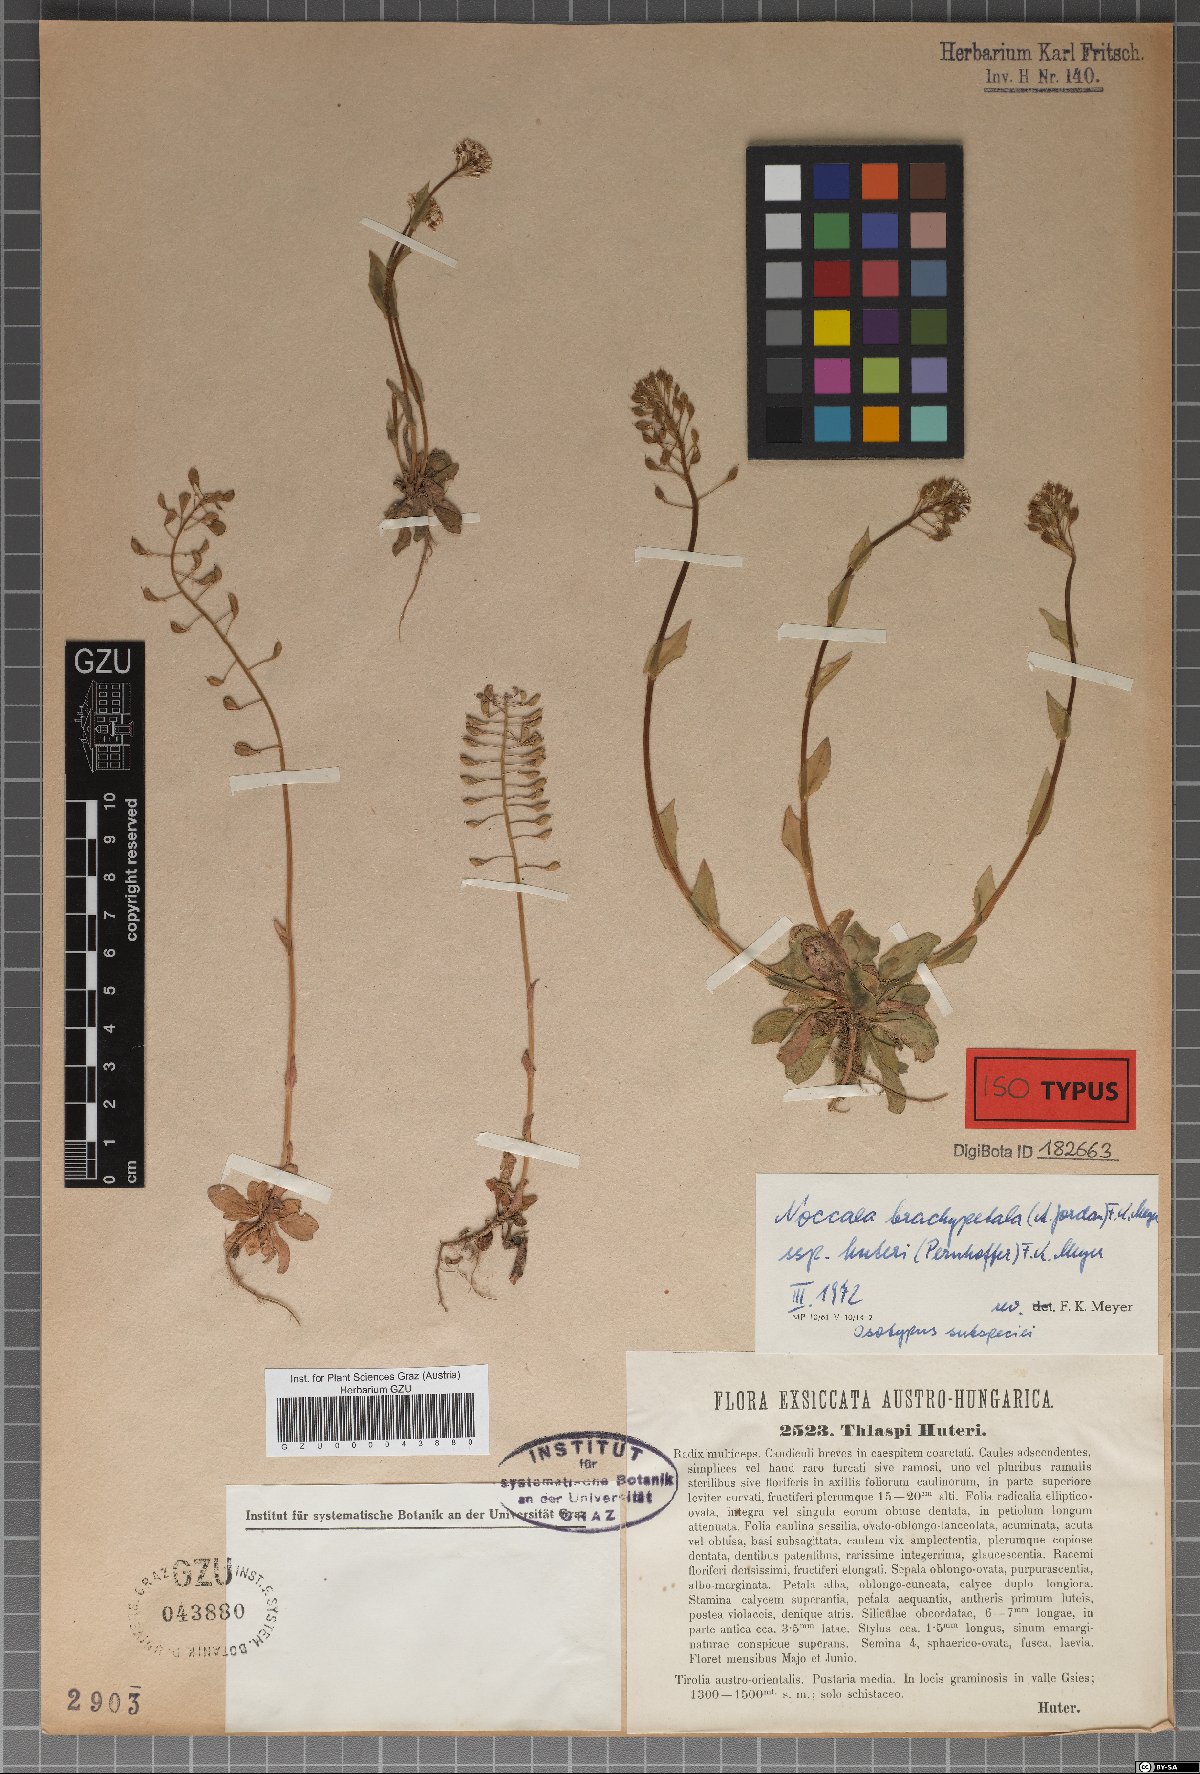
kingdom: Plantae
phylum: Tracheophyta
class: Magnoliopsida
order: Brassicales
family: Brassicaceae
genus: Noccaea
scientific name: Noccaea brachypetala
